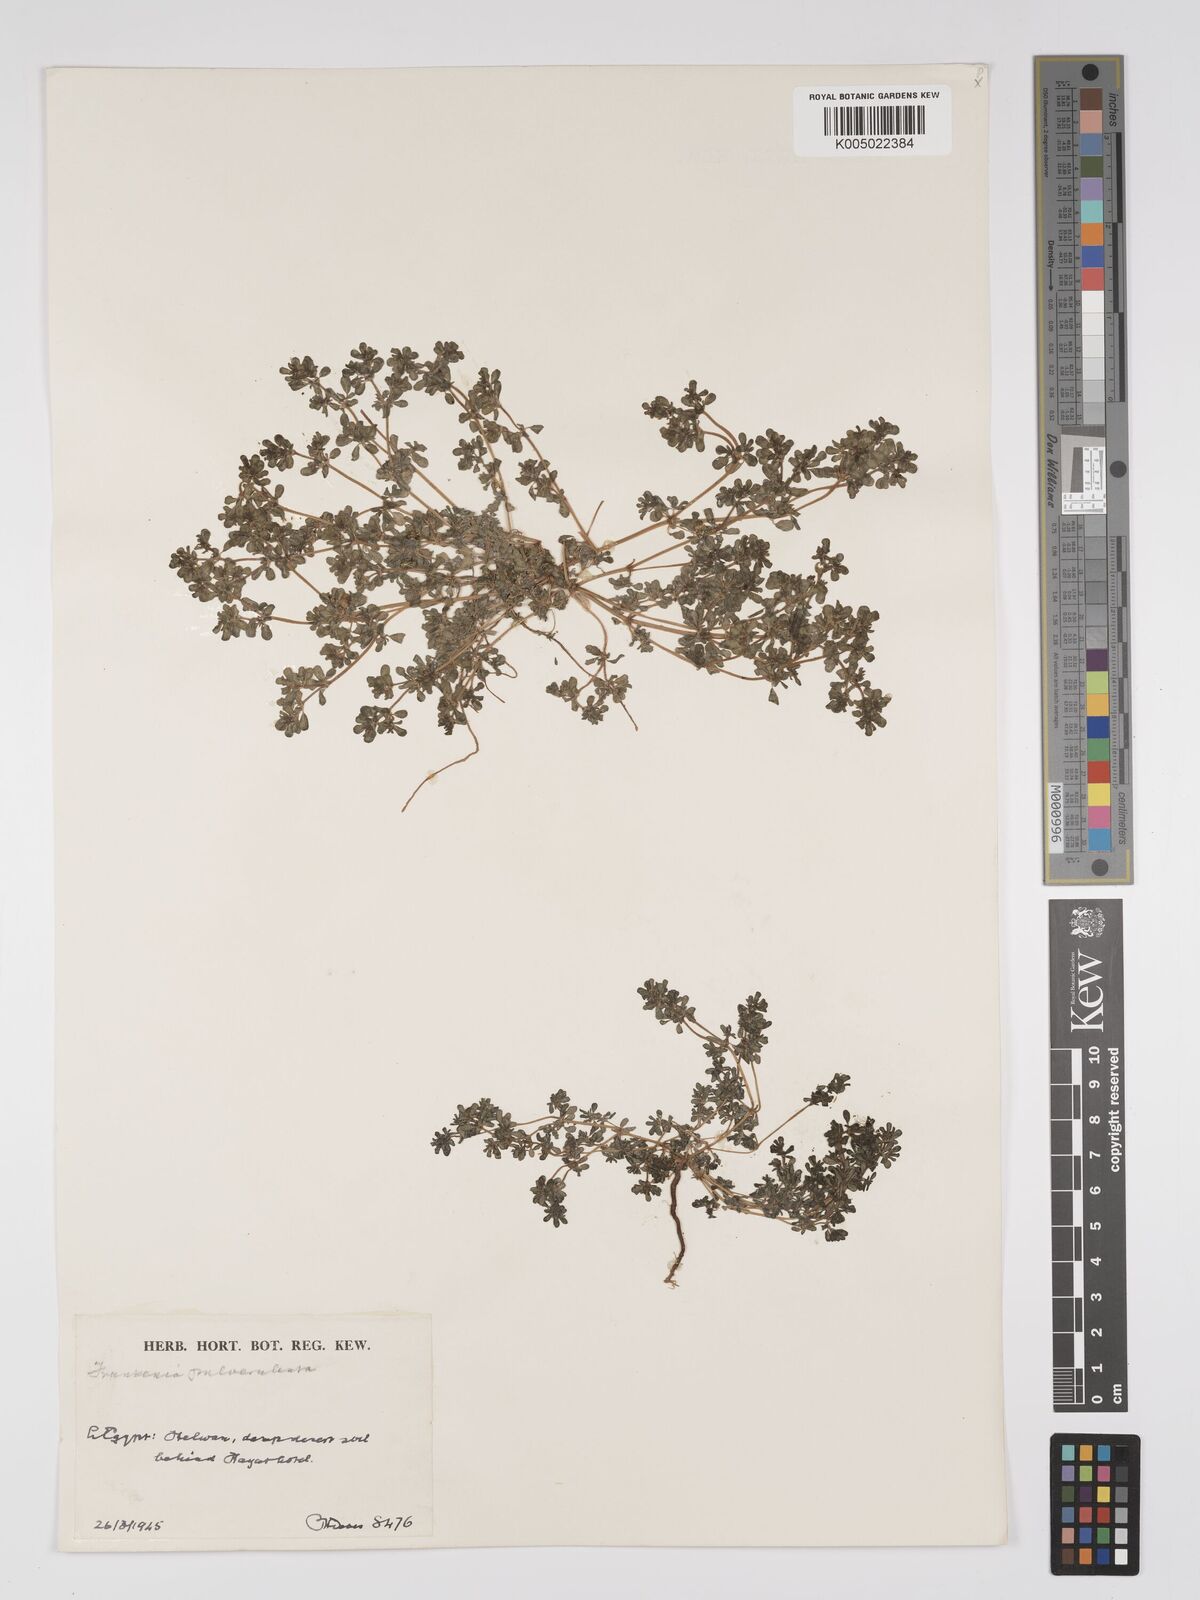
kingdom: Plantae
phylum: Tracheophyta
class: Magnoliopsida
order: Caryophyllales
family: Frankeniaceae
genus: Frankenia
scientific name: Frankenia pulverulenta
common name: European seaheath
